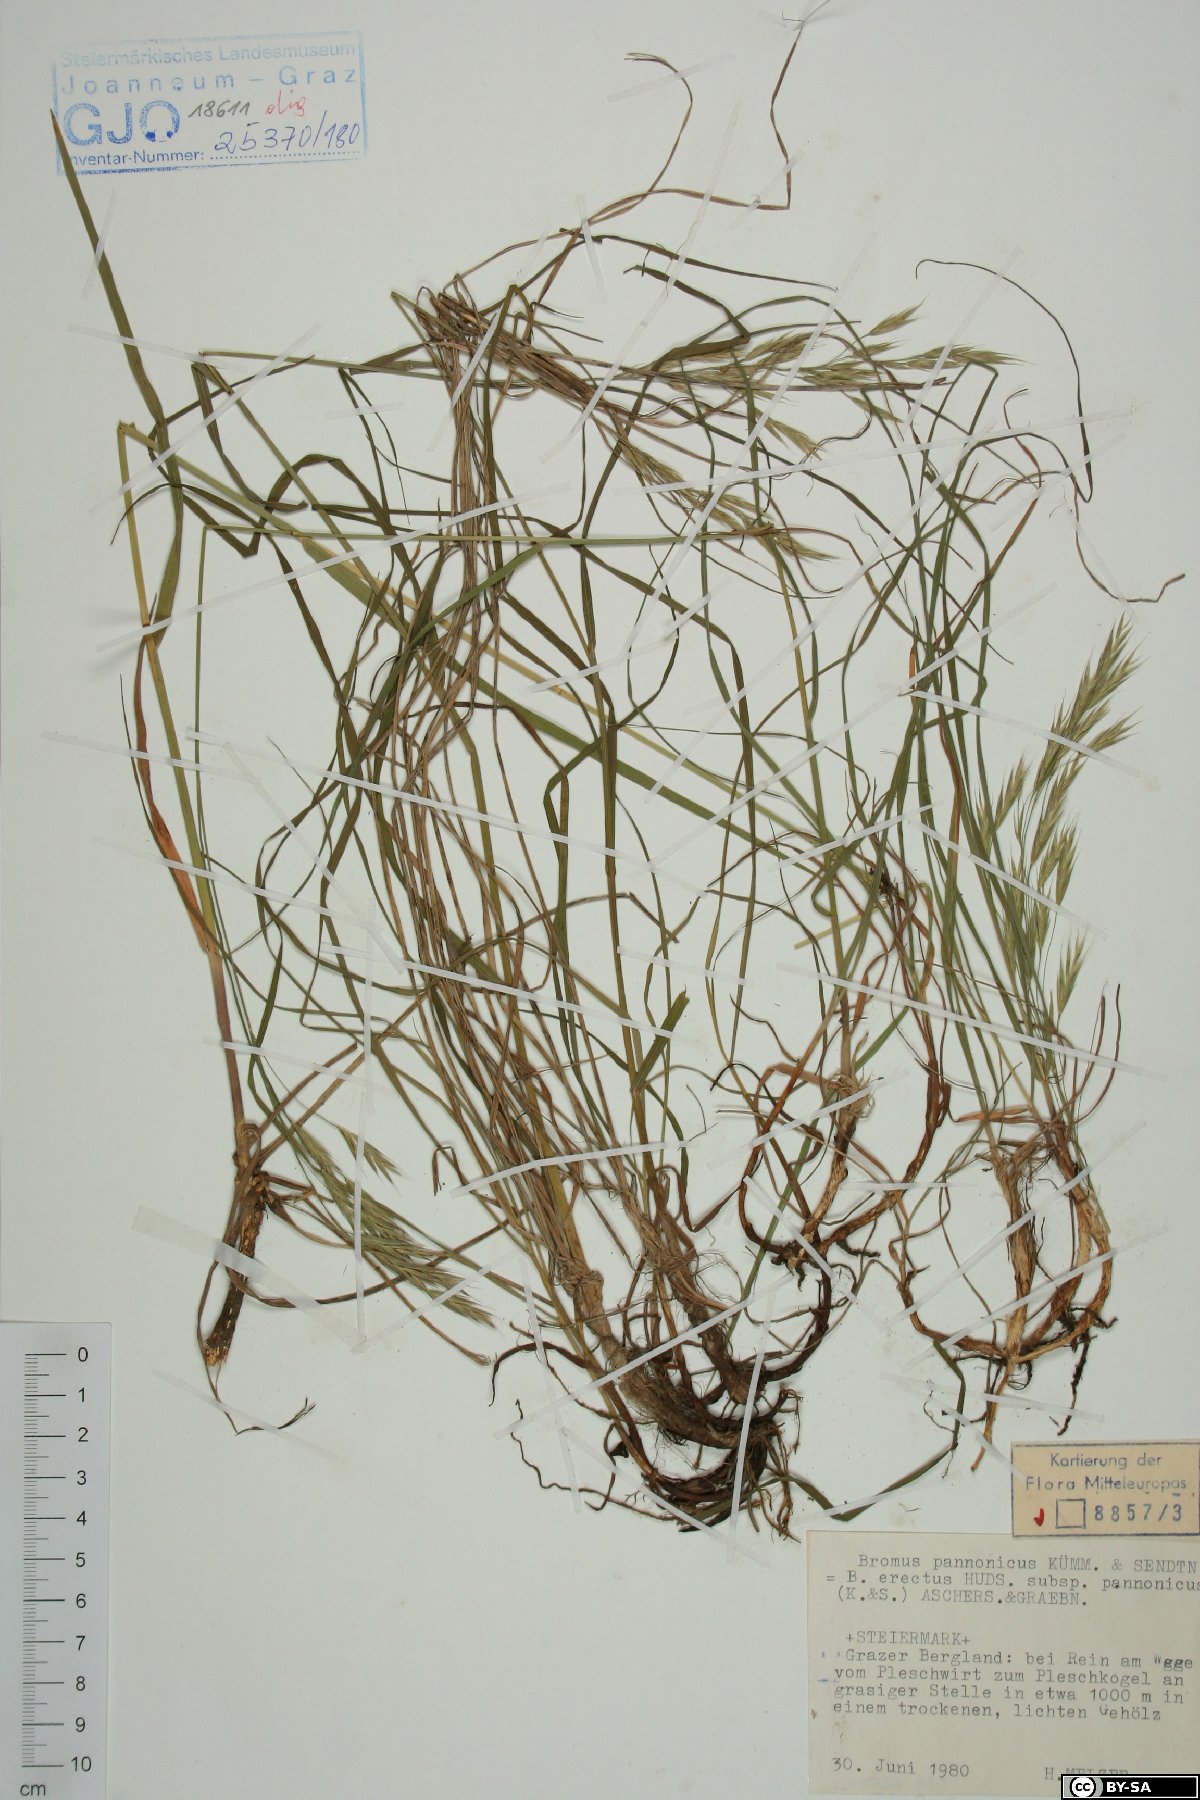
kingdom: Plantae
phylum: Tracheophyta
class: Liliopsida
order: Poales
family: Poaceae
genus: Bromus
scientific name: Bromus pannonicus
